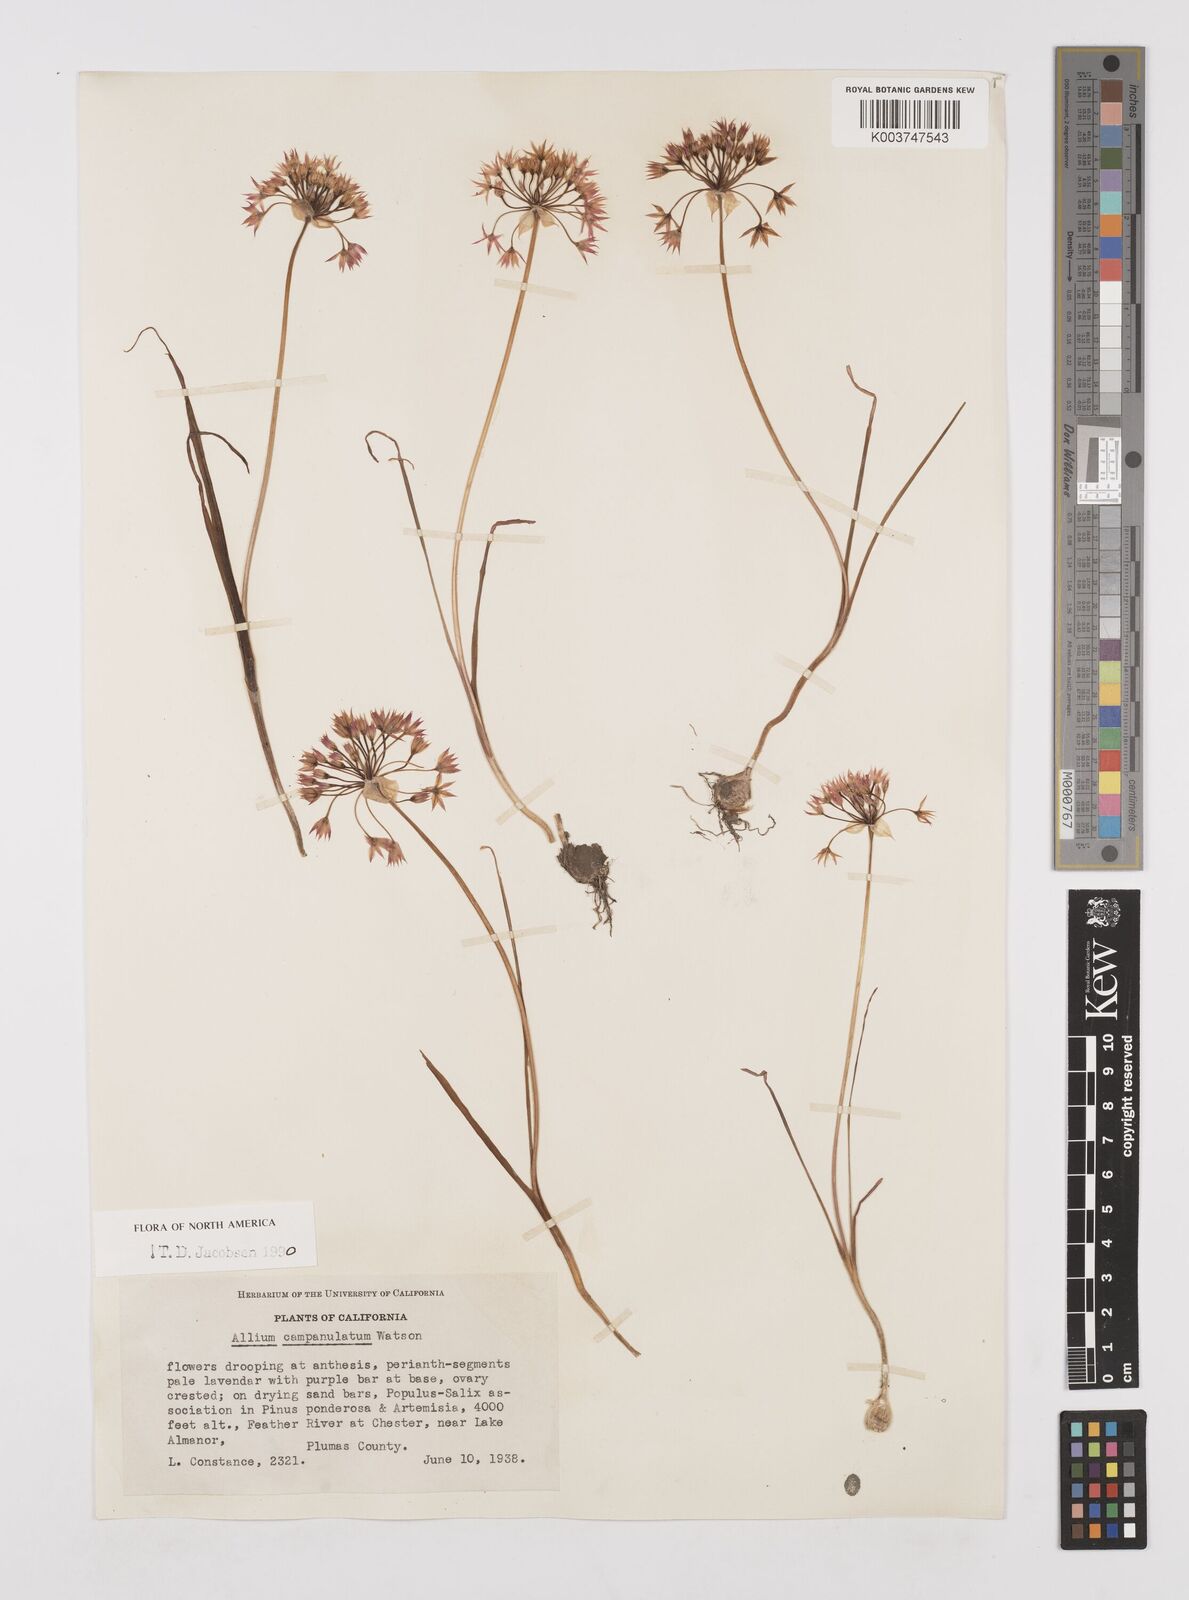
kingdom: Plantae
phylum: Tracheophyta
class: Liliopsida
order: Asparagales
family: Amaryllidaceae
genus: Allium
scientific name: Allium campanulatum
